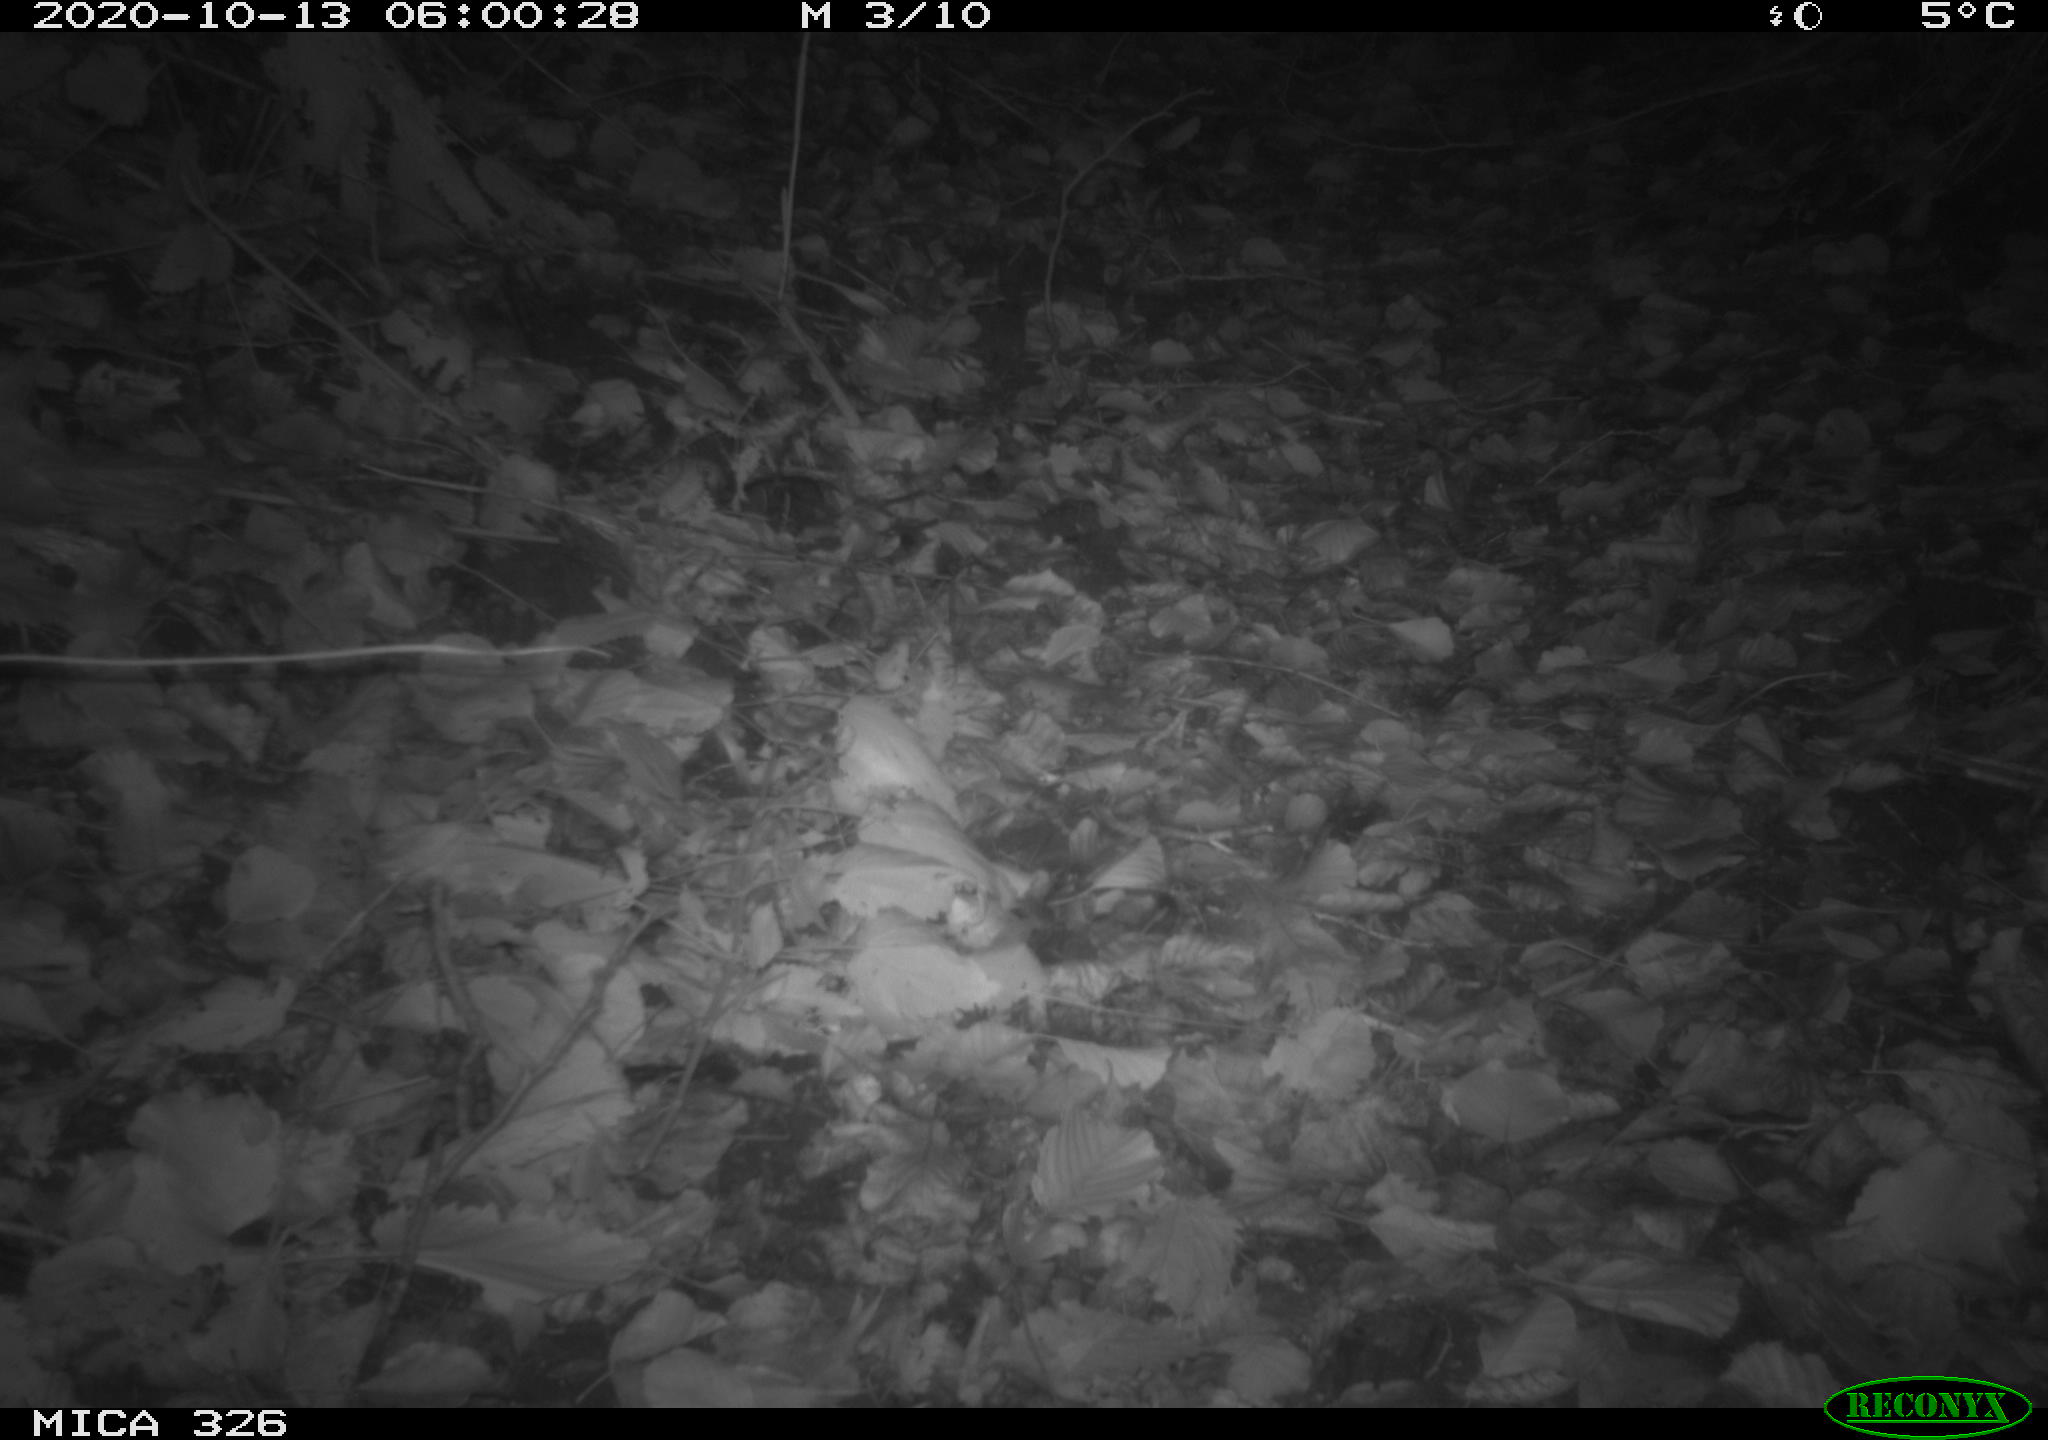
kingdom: Animalia
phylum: Chordata
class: Mammalia
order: Carnivora
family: Mustelidae
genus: Lutra
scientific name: Lutra lutra
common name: European otter
